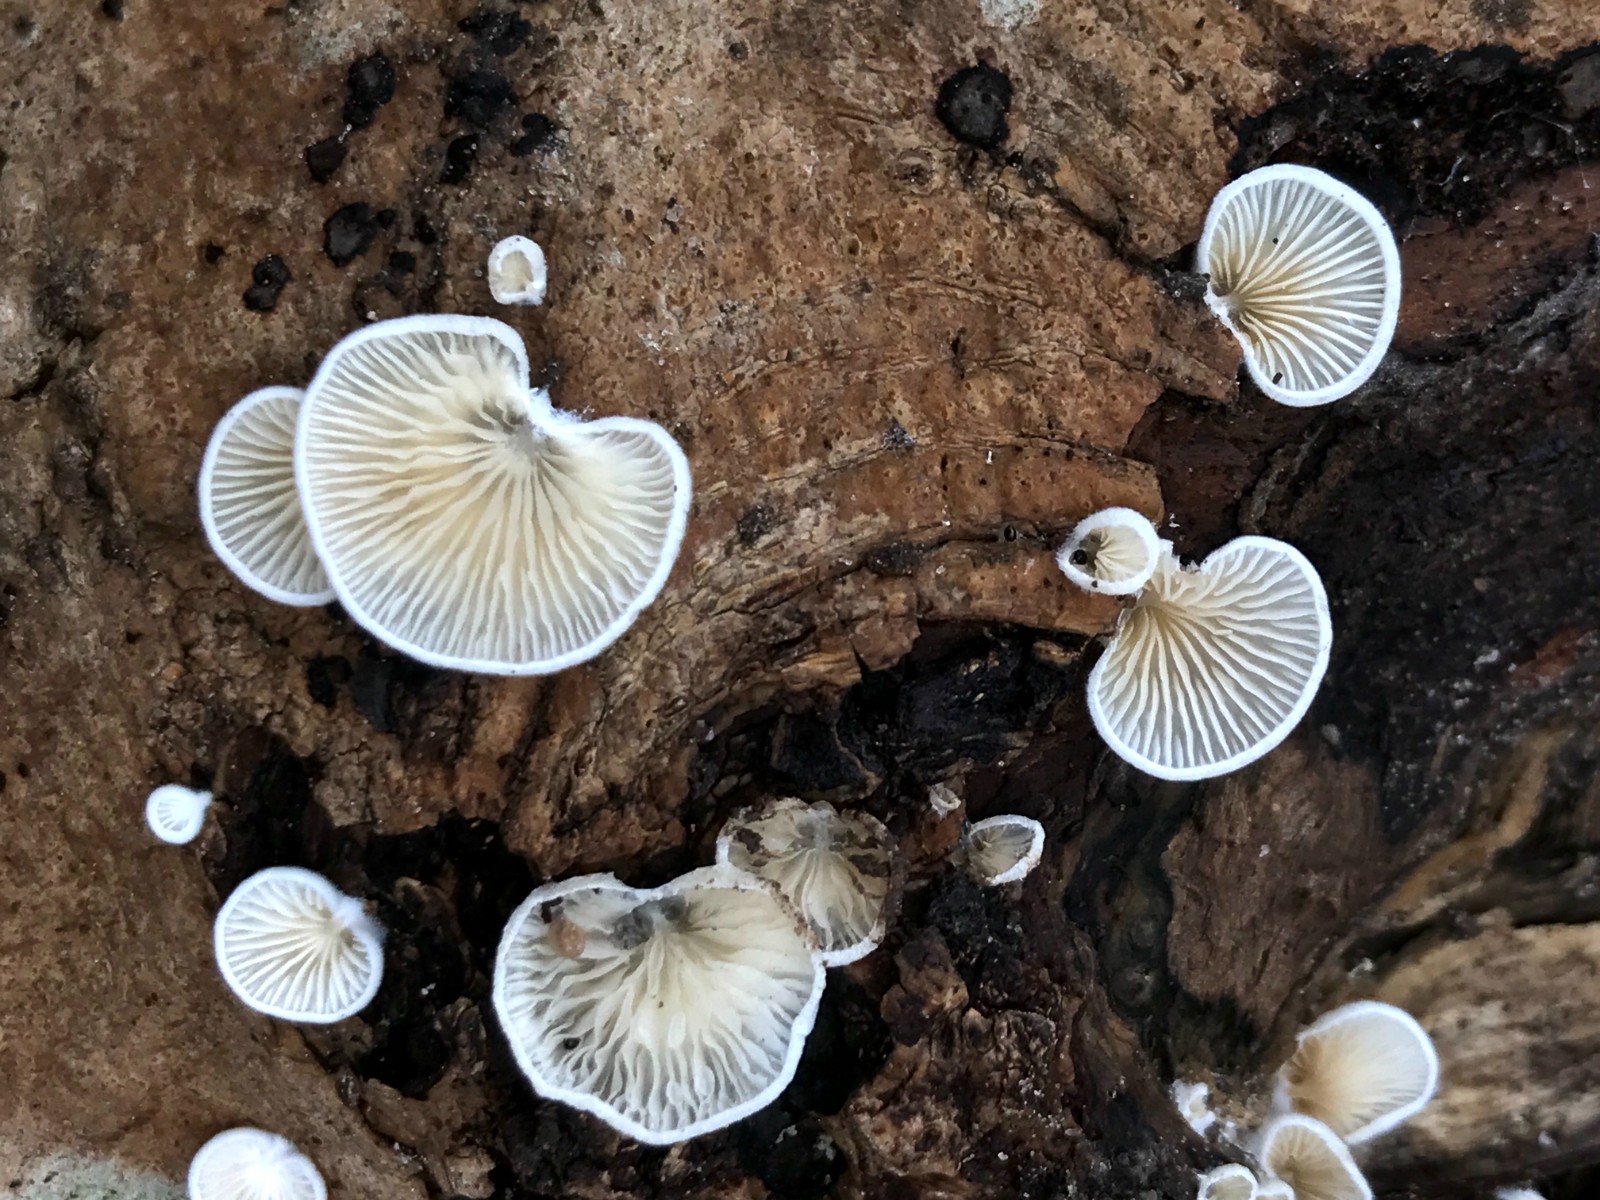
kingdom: Fungi
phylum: Basidiomycota
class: Agaricomycetes
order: Agaricales
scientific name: Agaricales
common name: champignonordenen
